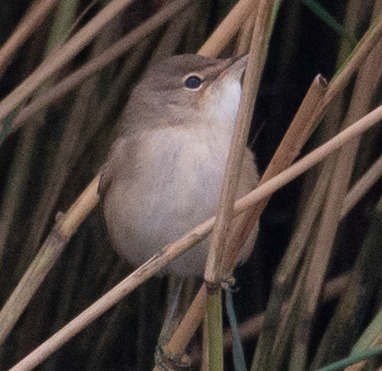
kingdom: Animalia
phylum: Chordata
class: Aves
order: Passeriformes
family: Acrocephalidae
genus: Acrocephalus
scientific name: Acrocephalus scirpaceus
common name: Rørsanger
